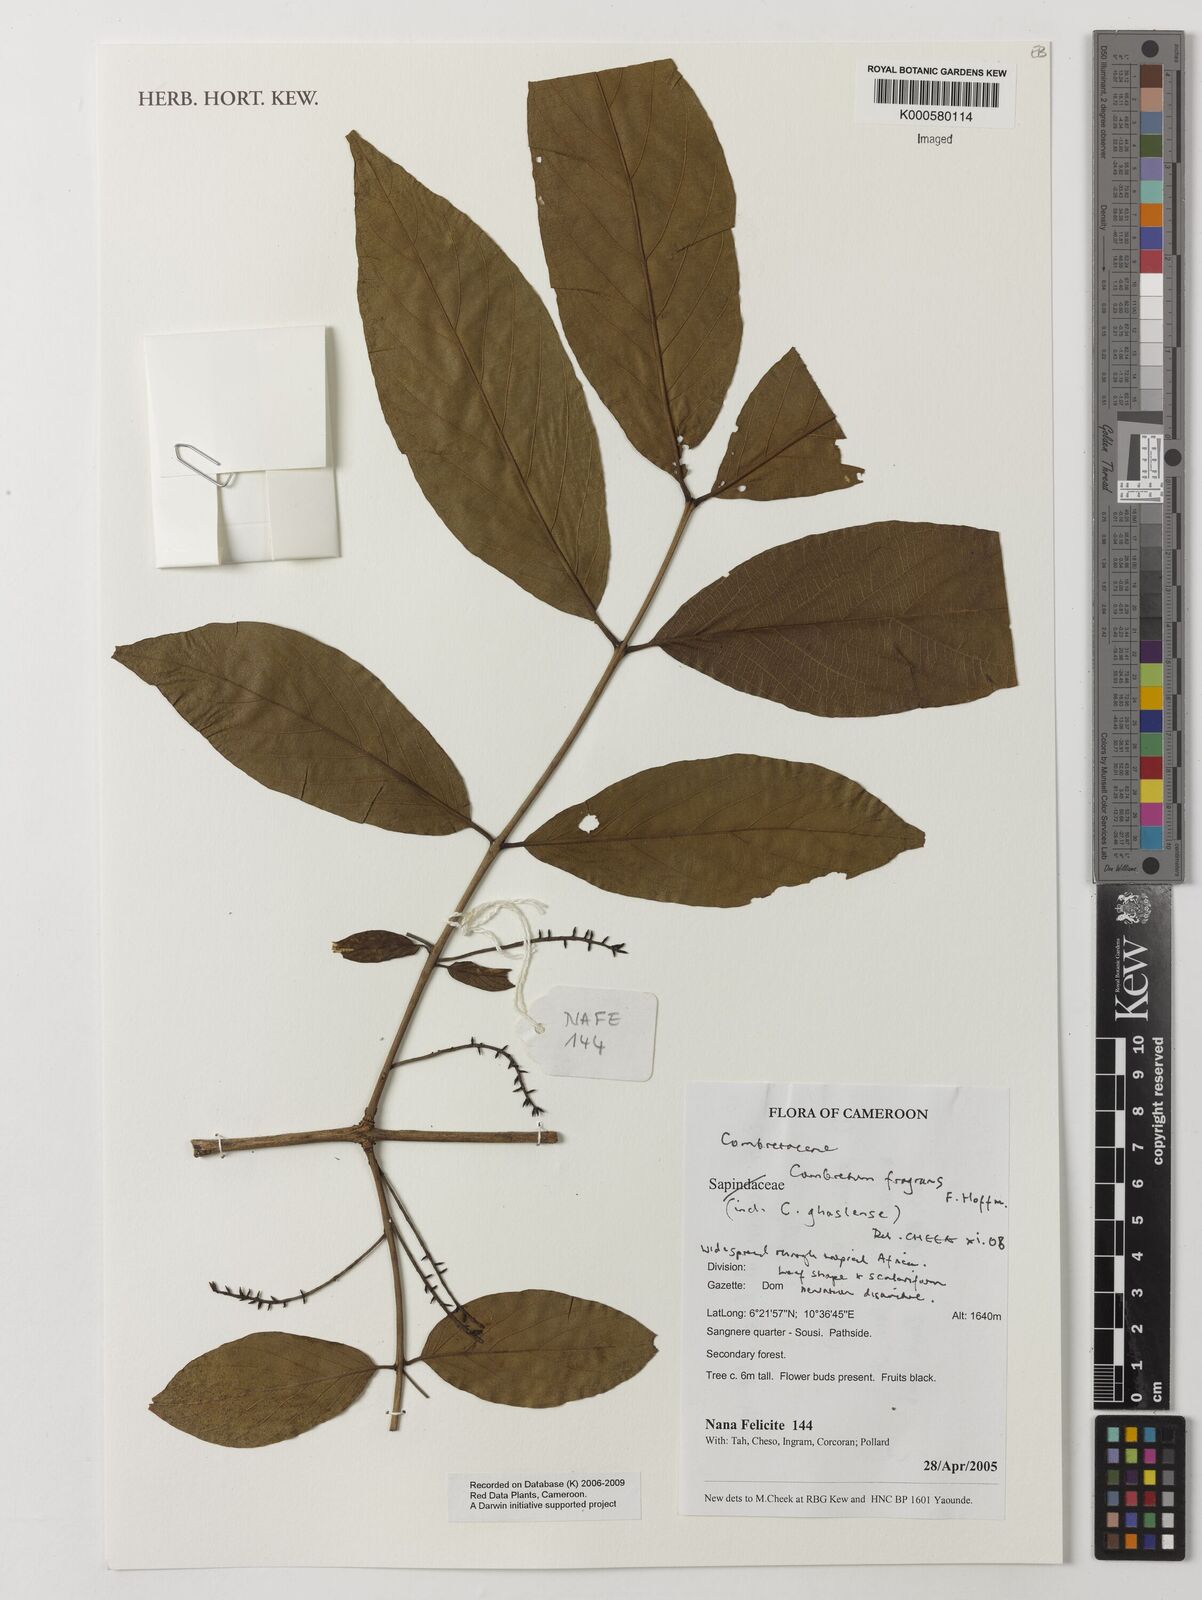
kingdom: Plantae
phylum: Tracheophyta
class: Magnoliopsida
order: Myrtales
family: Combretaceae
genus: Combretum
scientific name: Combretum adenogonium
